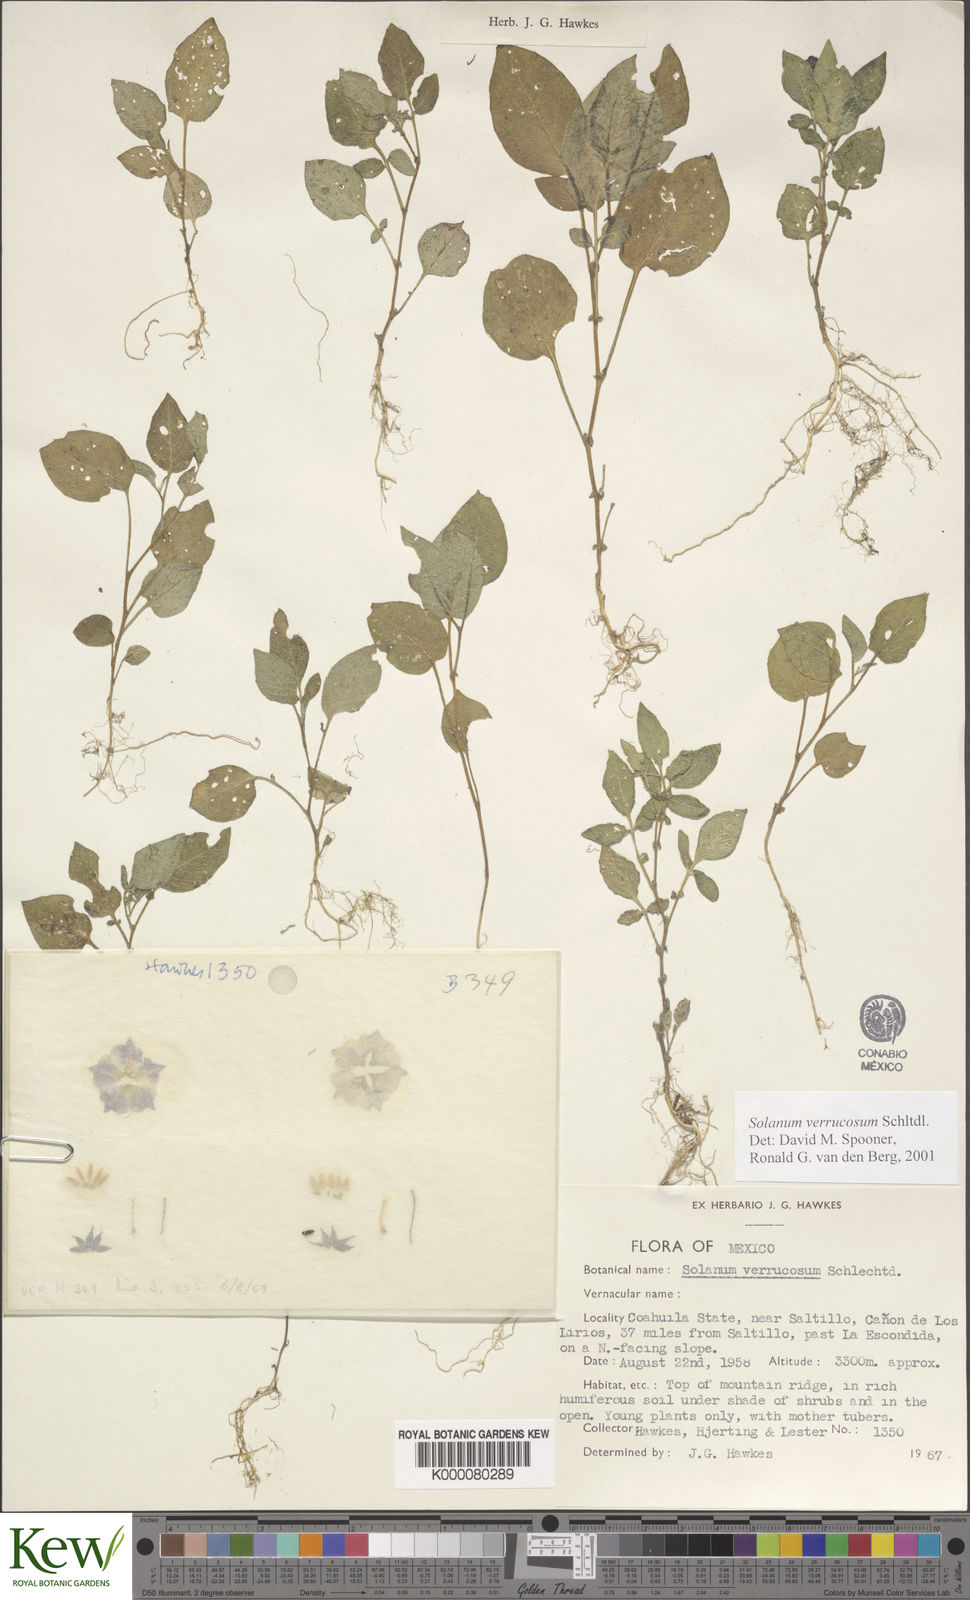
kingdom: Plantae
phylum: Tracheophyta
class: Magnoliopsida
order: Solanales
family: Solanaceae
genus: Solanum
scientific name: Solanum verrucosum
